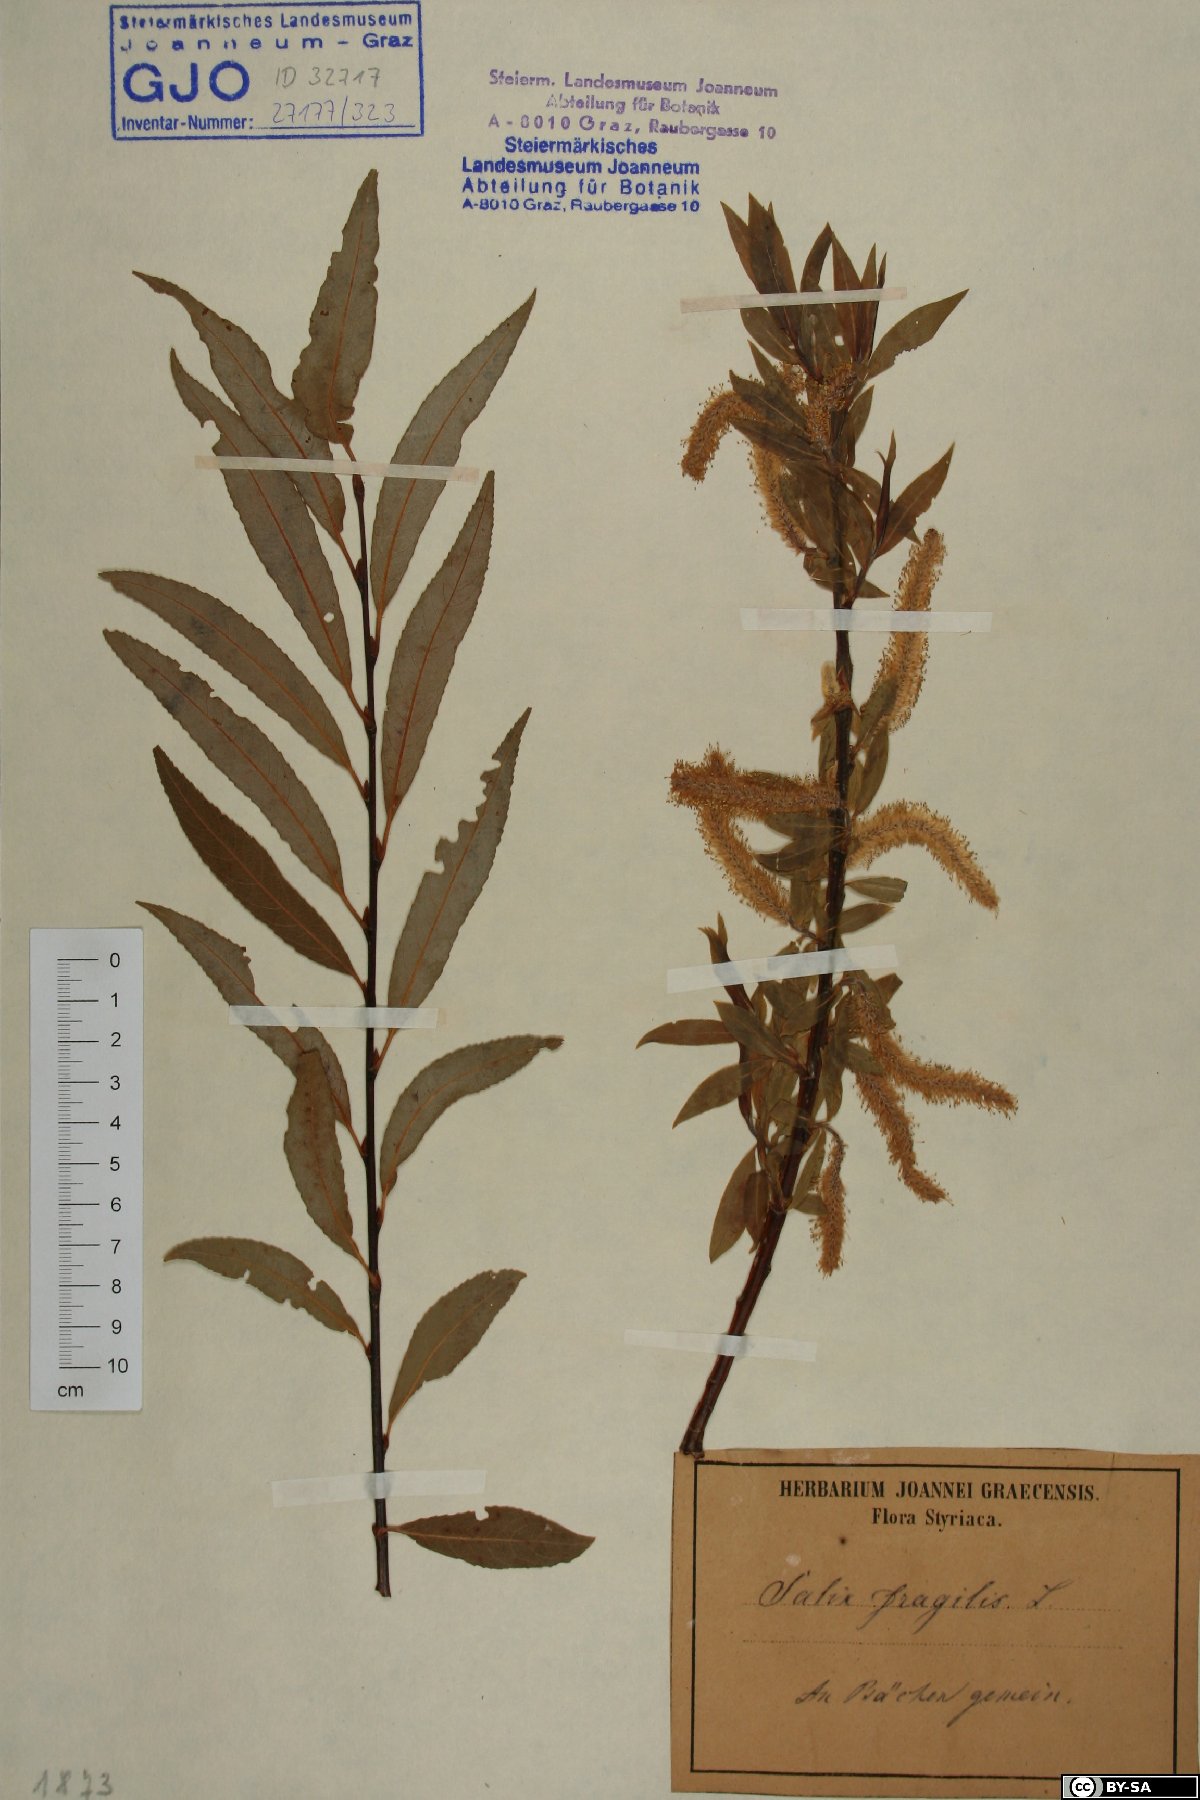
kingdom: Plantae
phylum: Tracheophyta
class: Magnoliopsida
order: Malpighiales
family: Salicaceae
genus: Salix
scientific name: Salix fragilis
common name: Crack willow
